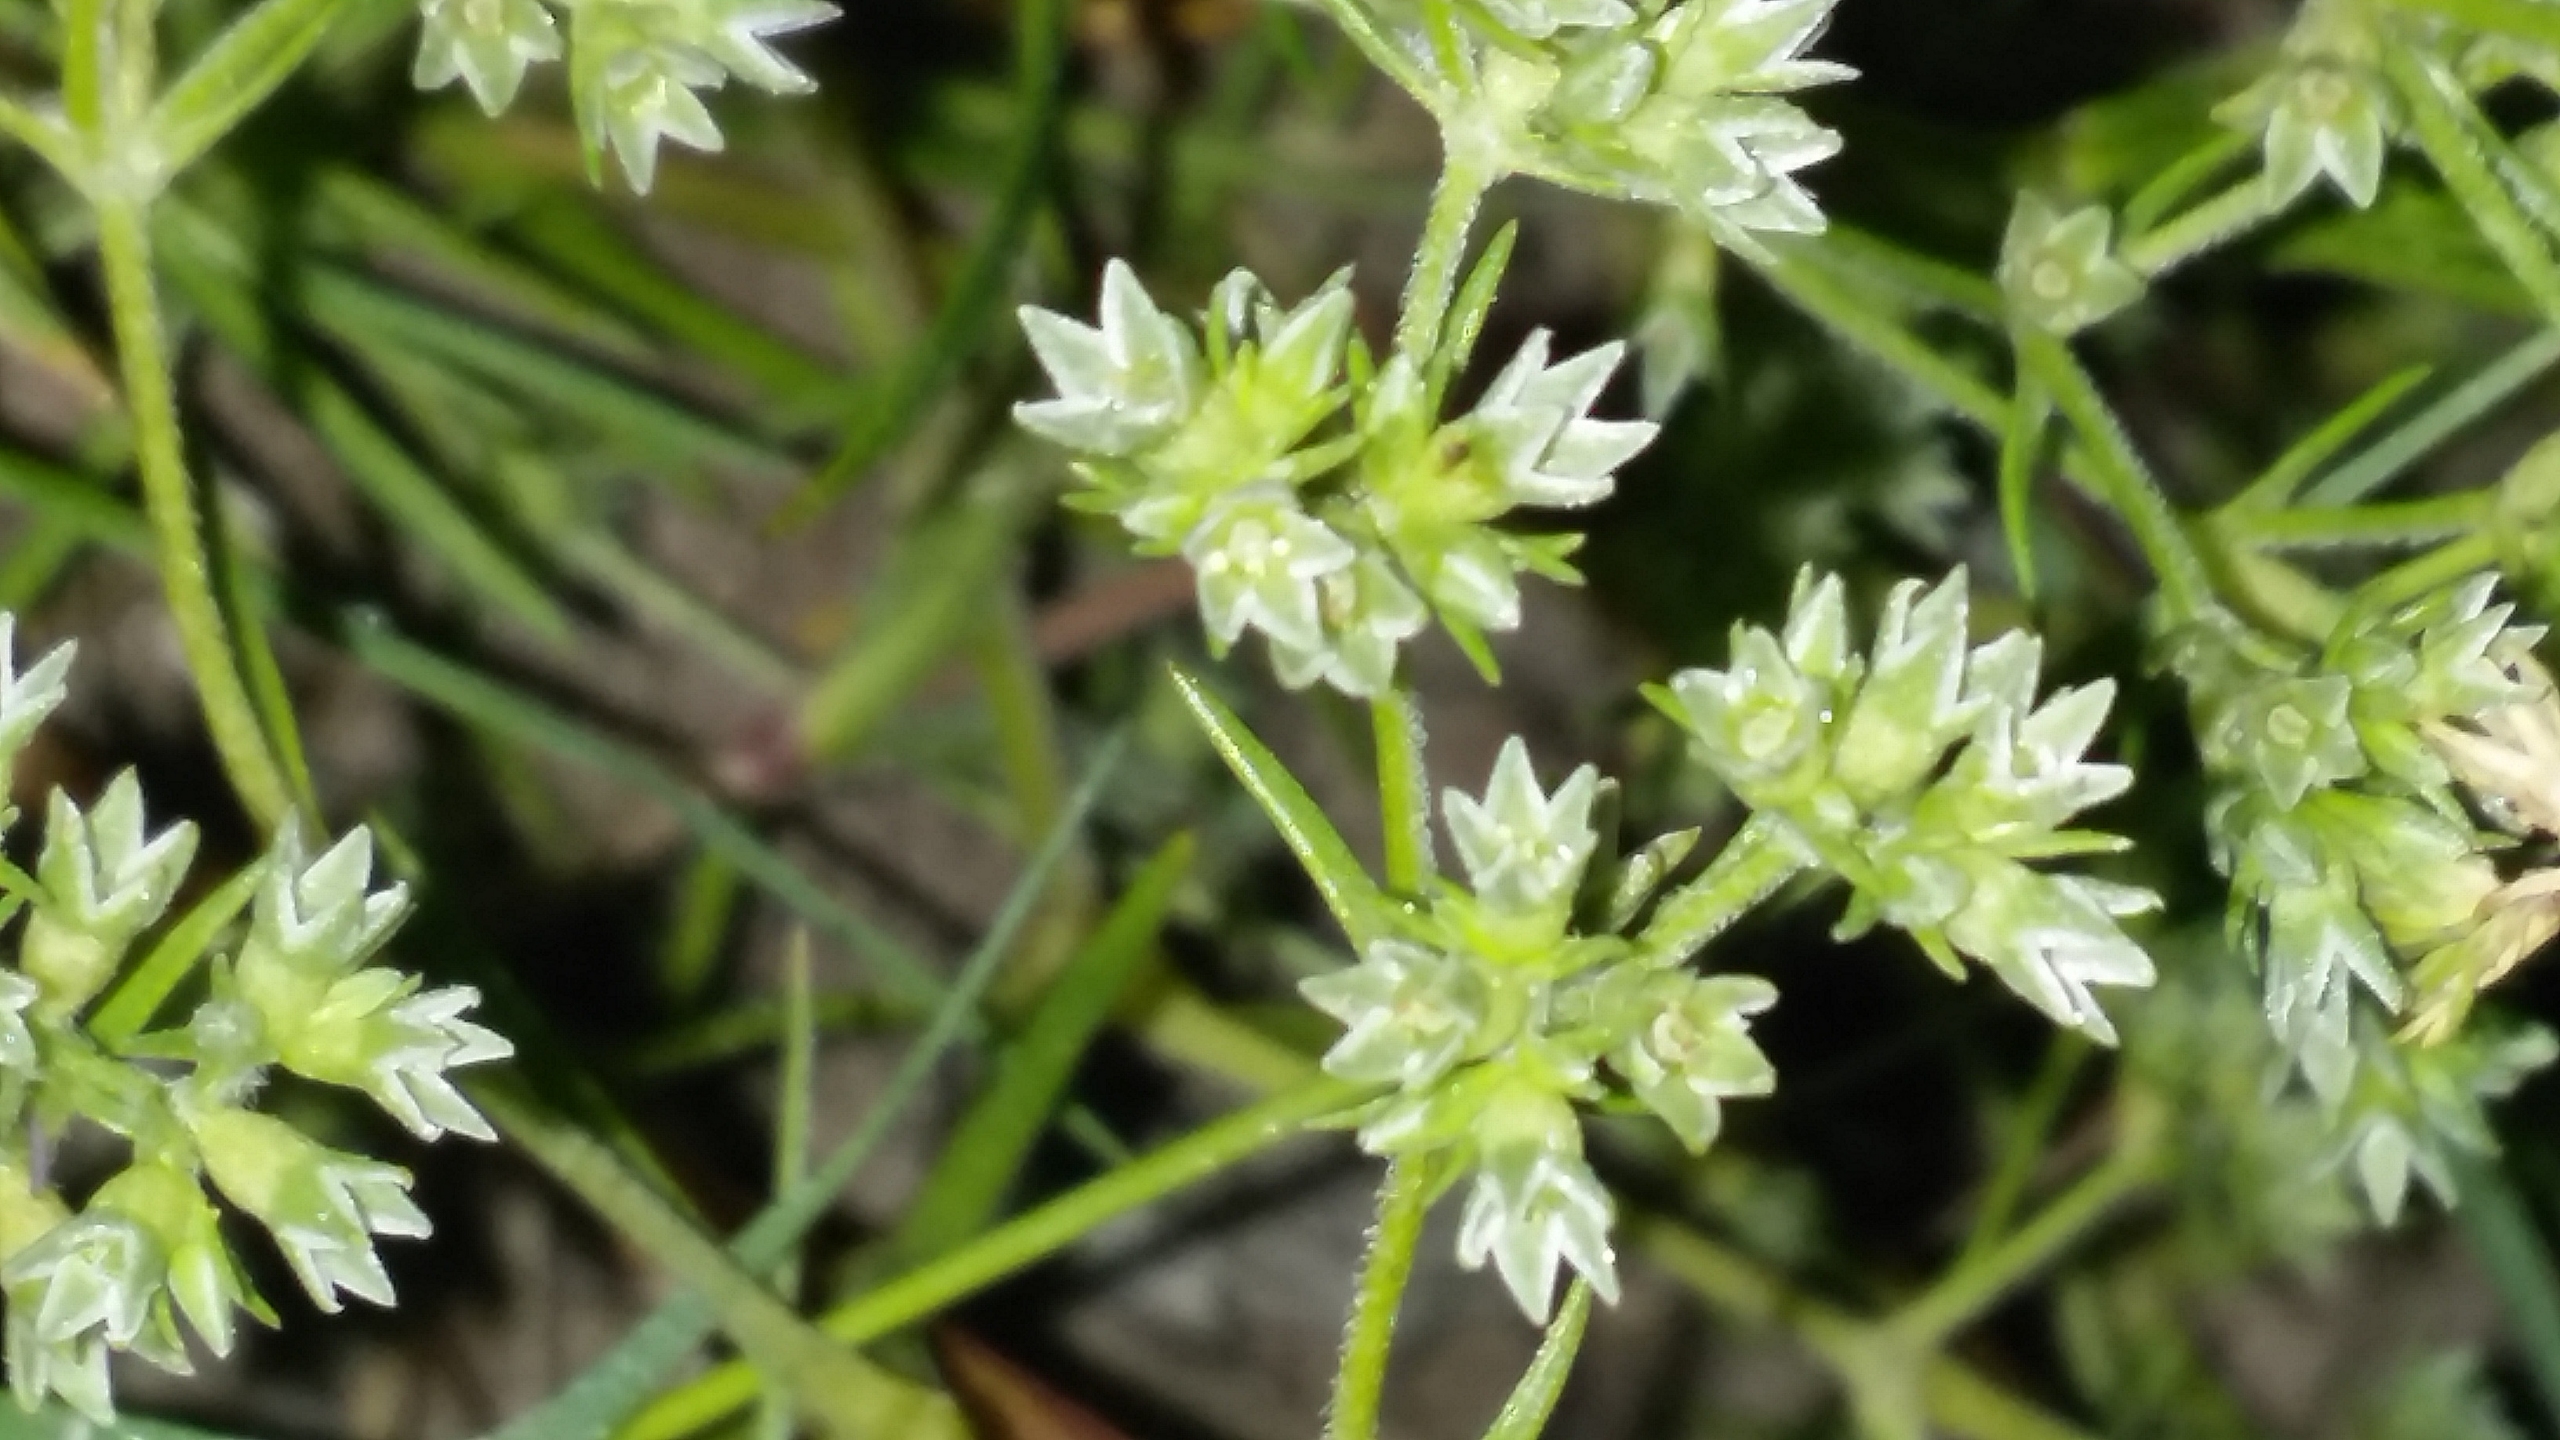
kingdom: Plantae
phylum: Tracheophyta
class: Magnoliopsida
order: Caryophyllales
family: Caryophyllaceae
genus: Scleranthus
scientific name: Scleranthus annuus
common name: Enårig knavel (underart)
